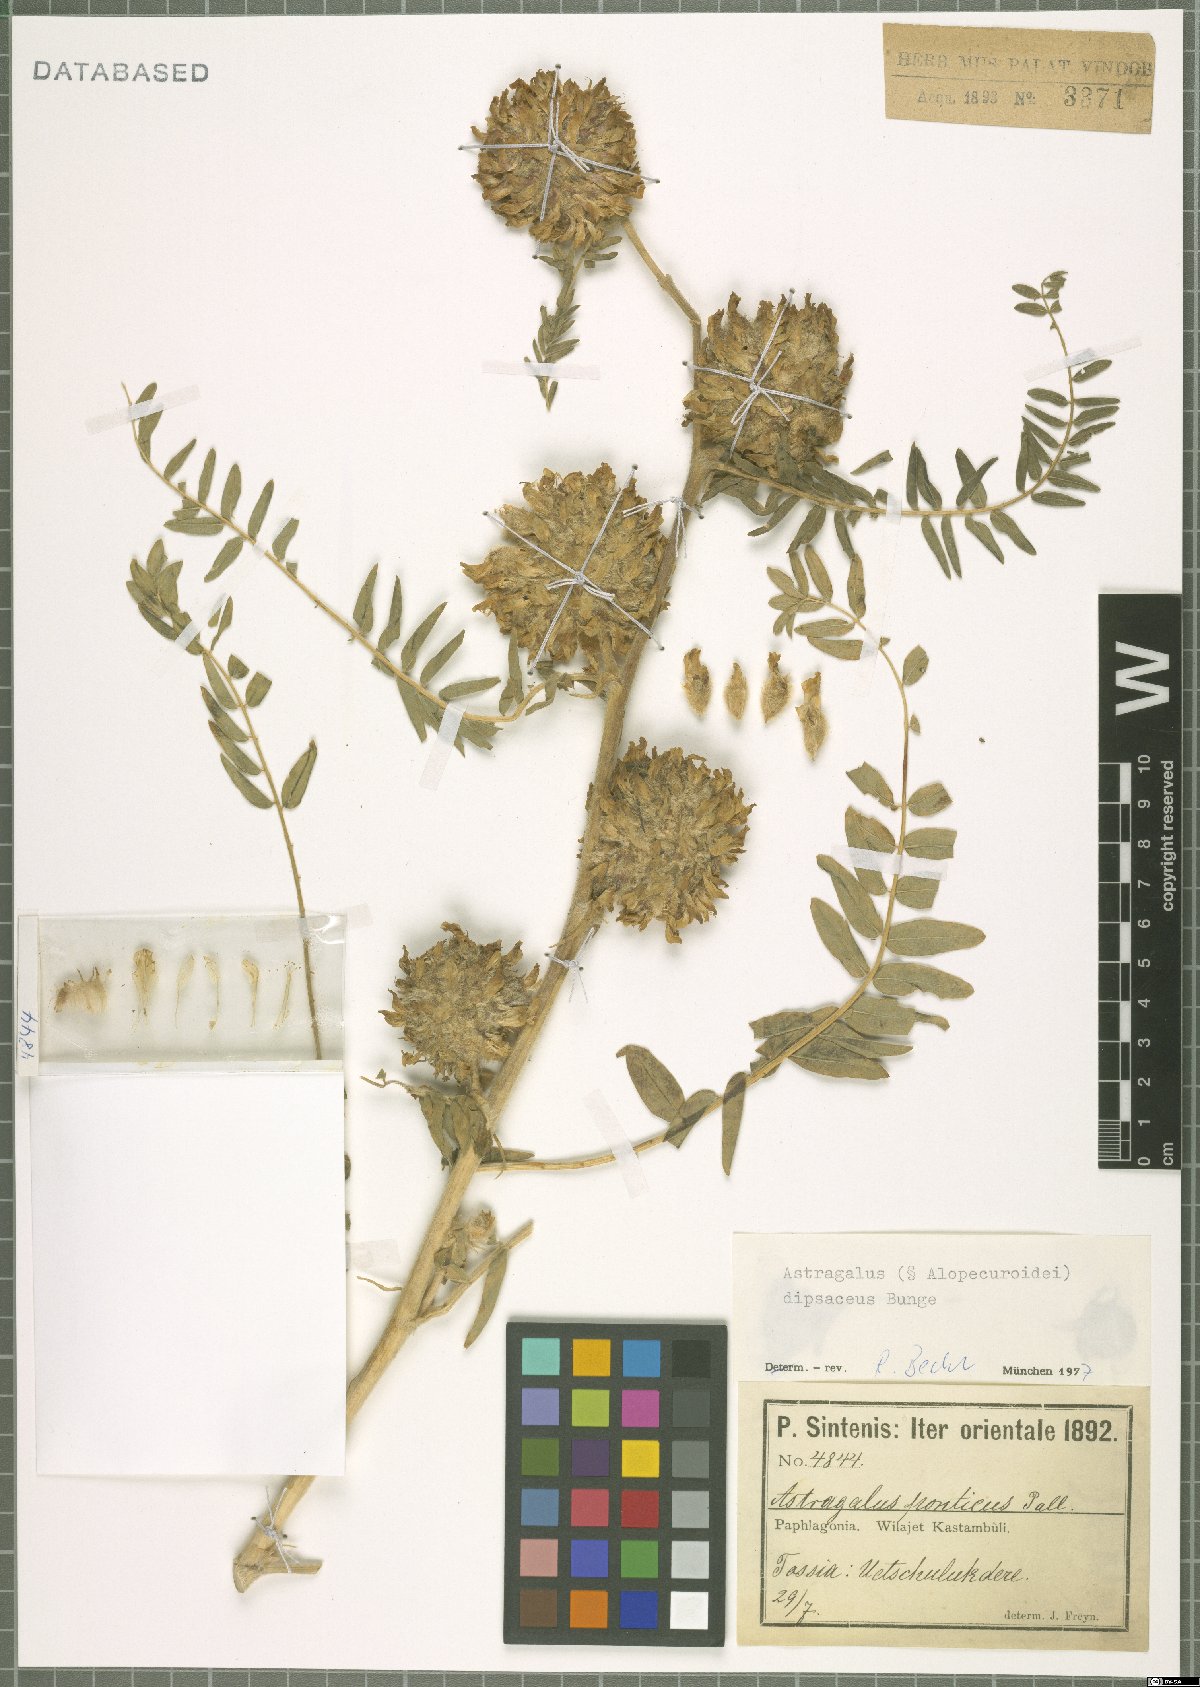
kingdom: Plantae
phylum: Tracheophyta
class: Magnoliopsida
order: Fabales
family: Fabaceae
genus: Astragalus
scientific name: Astragalus dipsaceus
